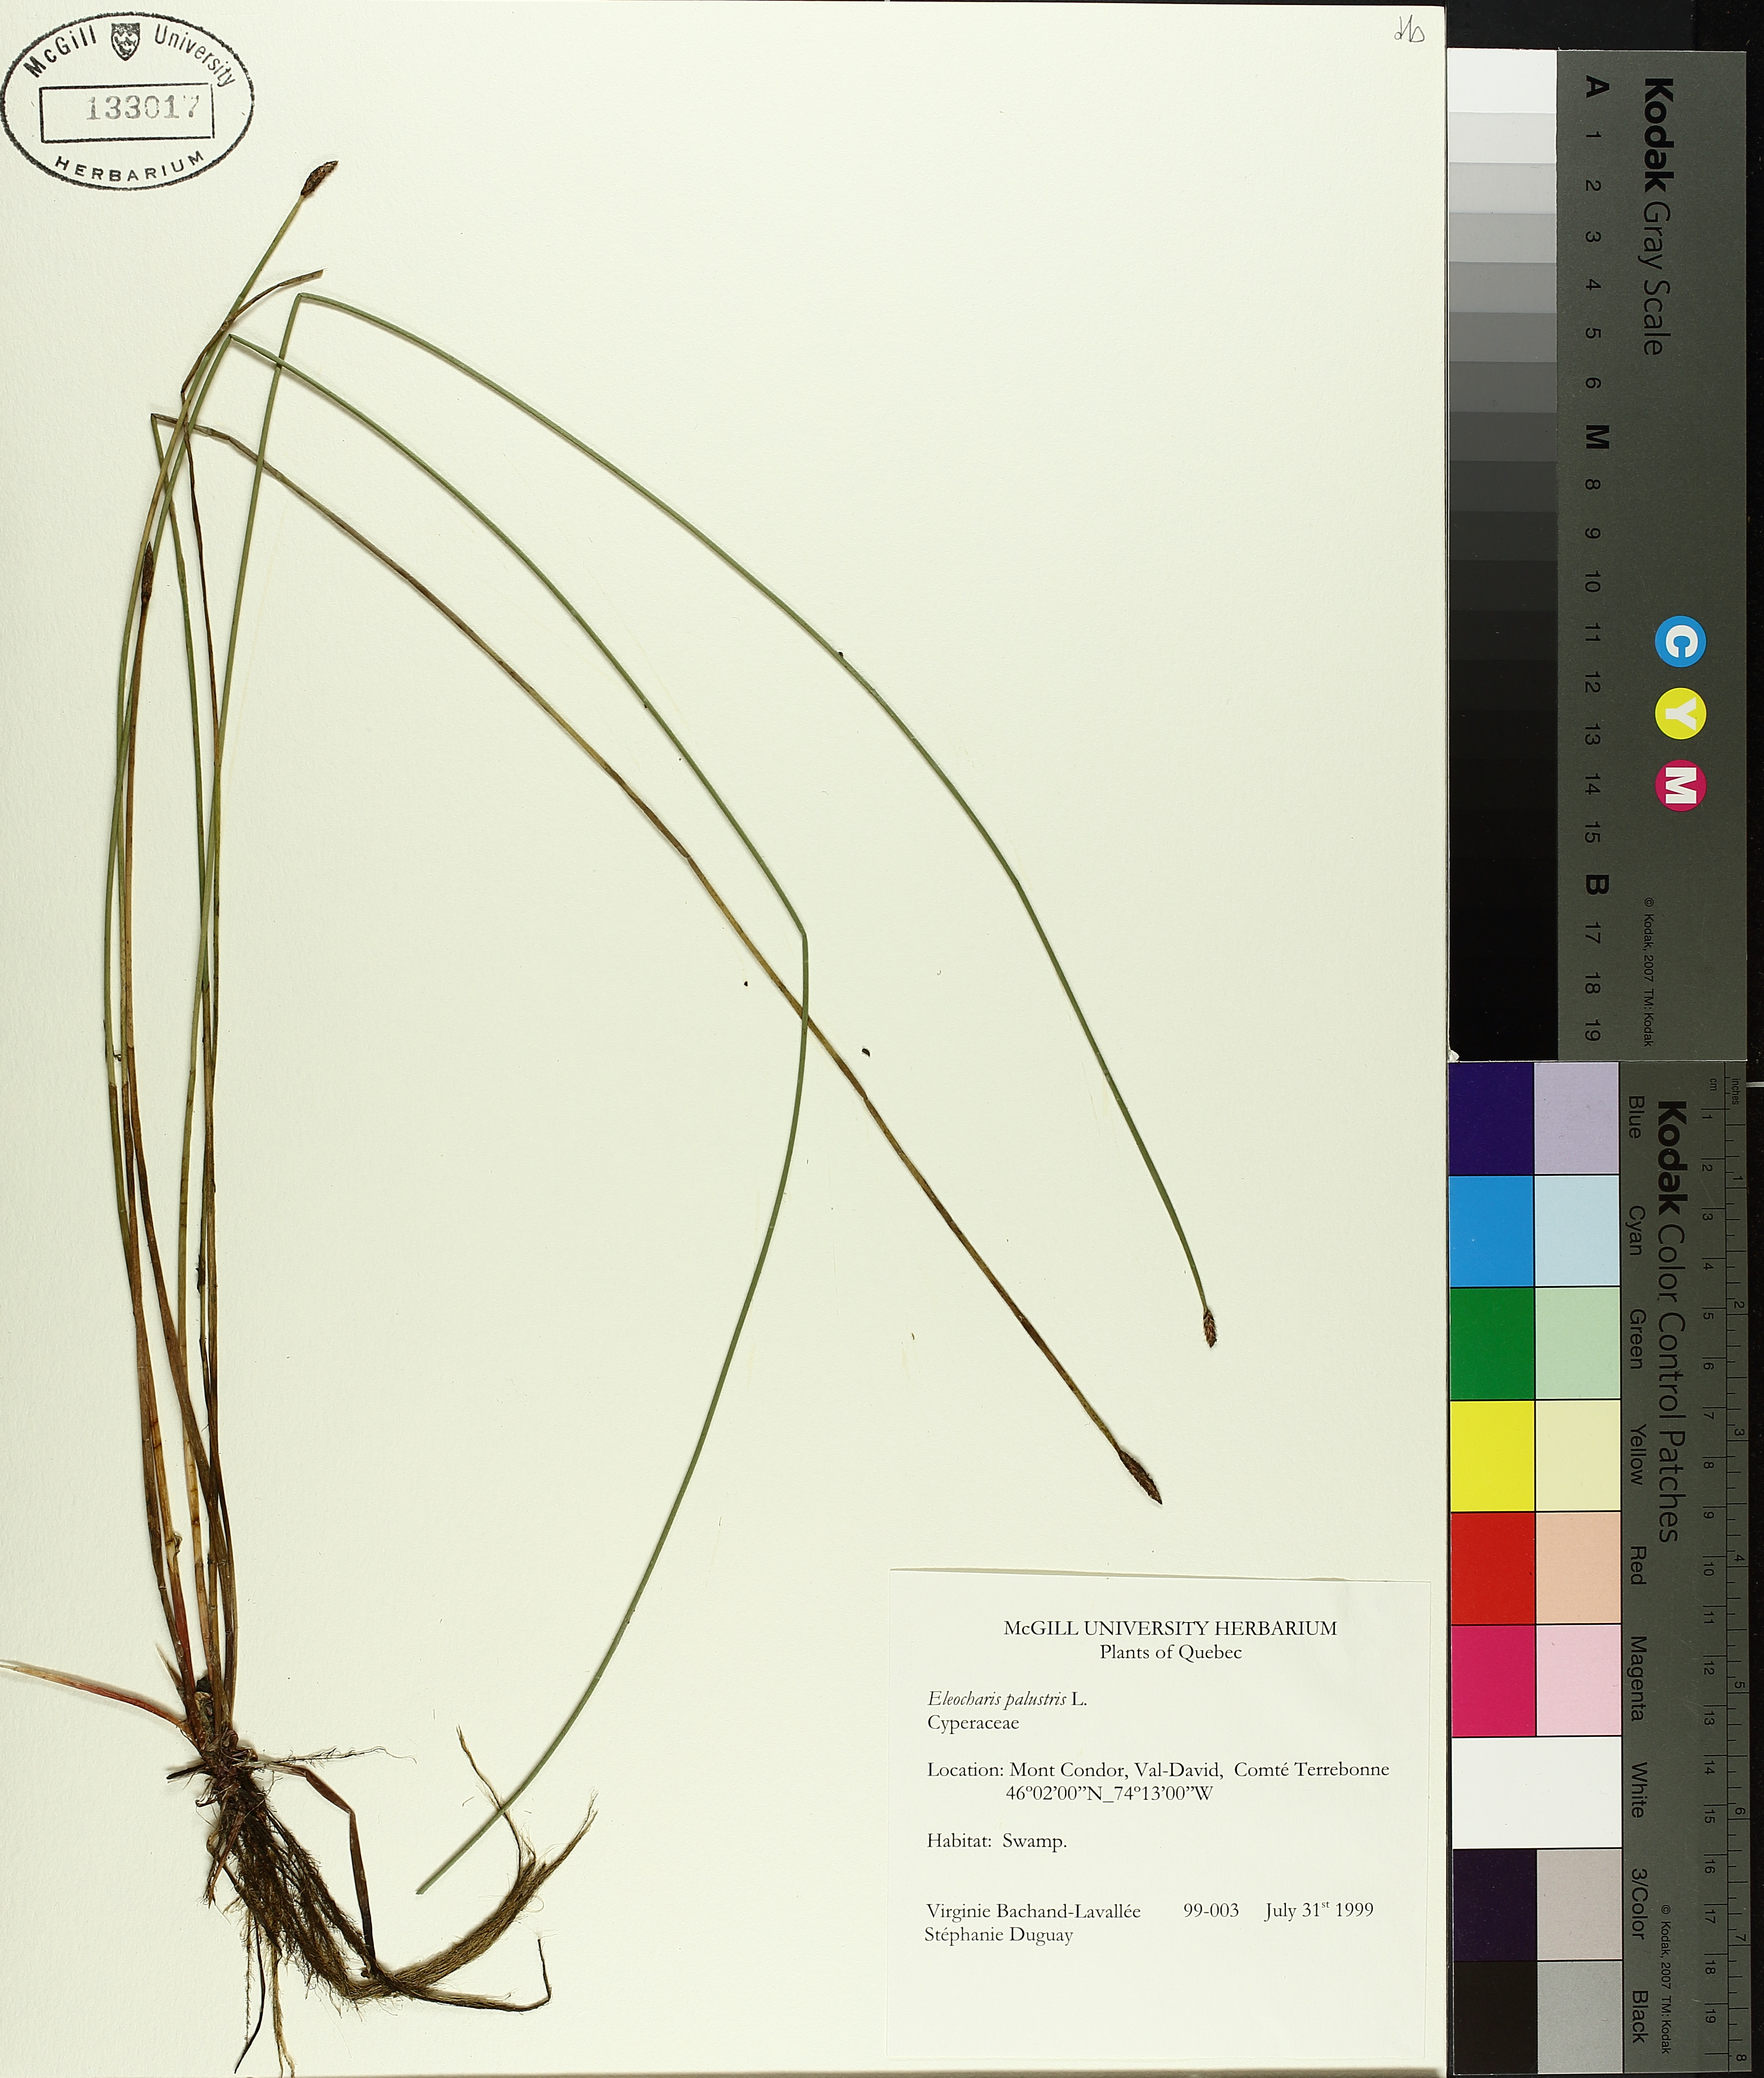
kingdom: Plantae
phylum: Tracheophyta
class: Liliopsida
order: Poales
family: Cyperaceae
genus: Eleocharis
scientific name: Eleocharis palustris
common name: Common spike-rush
